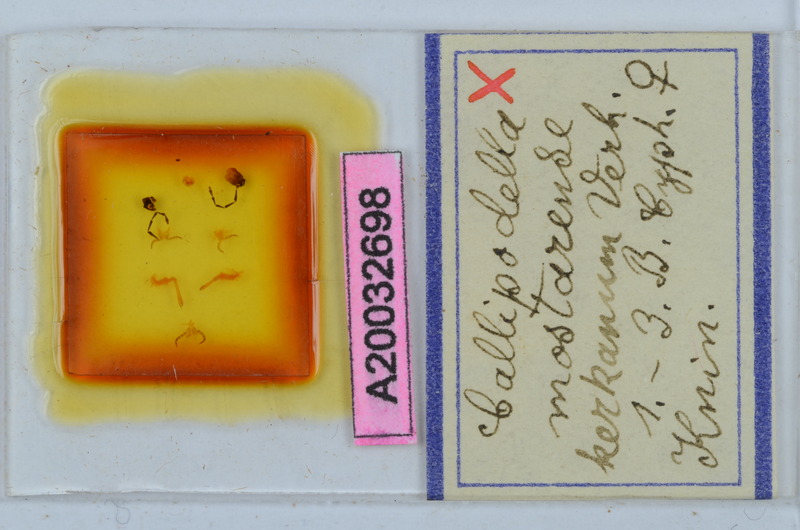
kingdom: Animalia
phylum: Arthropoda
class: Diplopoda
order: Callipodida
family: Schizopetalidae
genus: Callipodella
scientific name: Callipodella mostarensis
